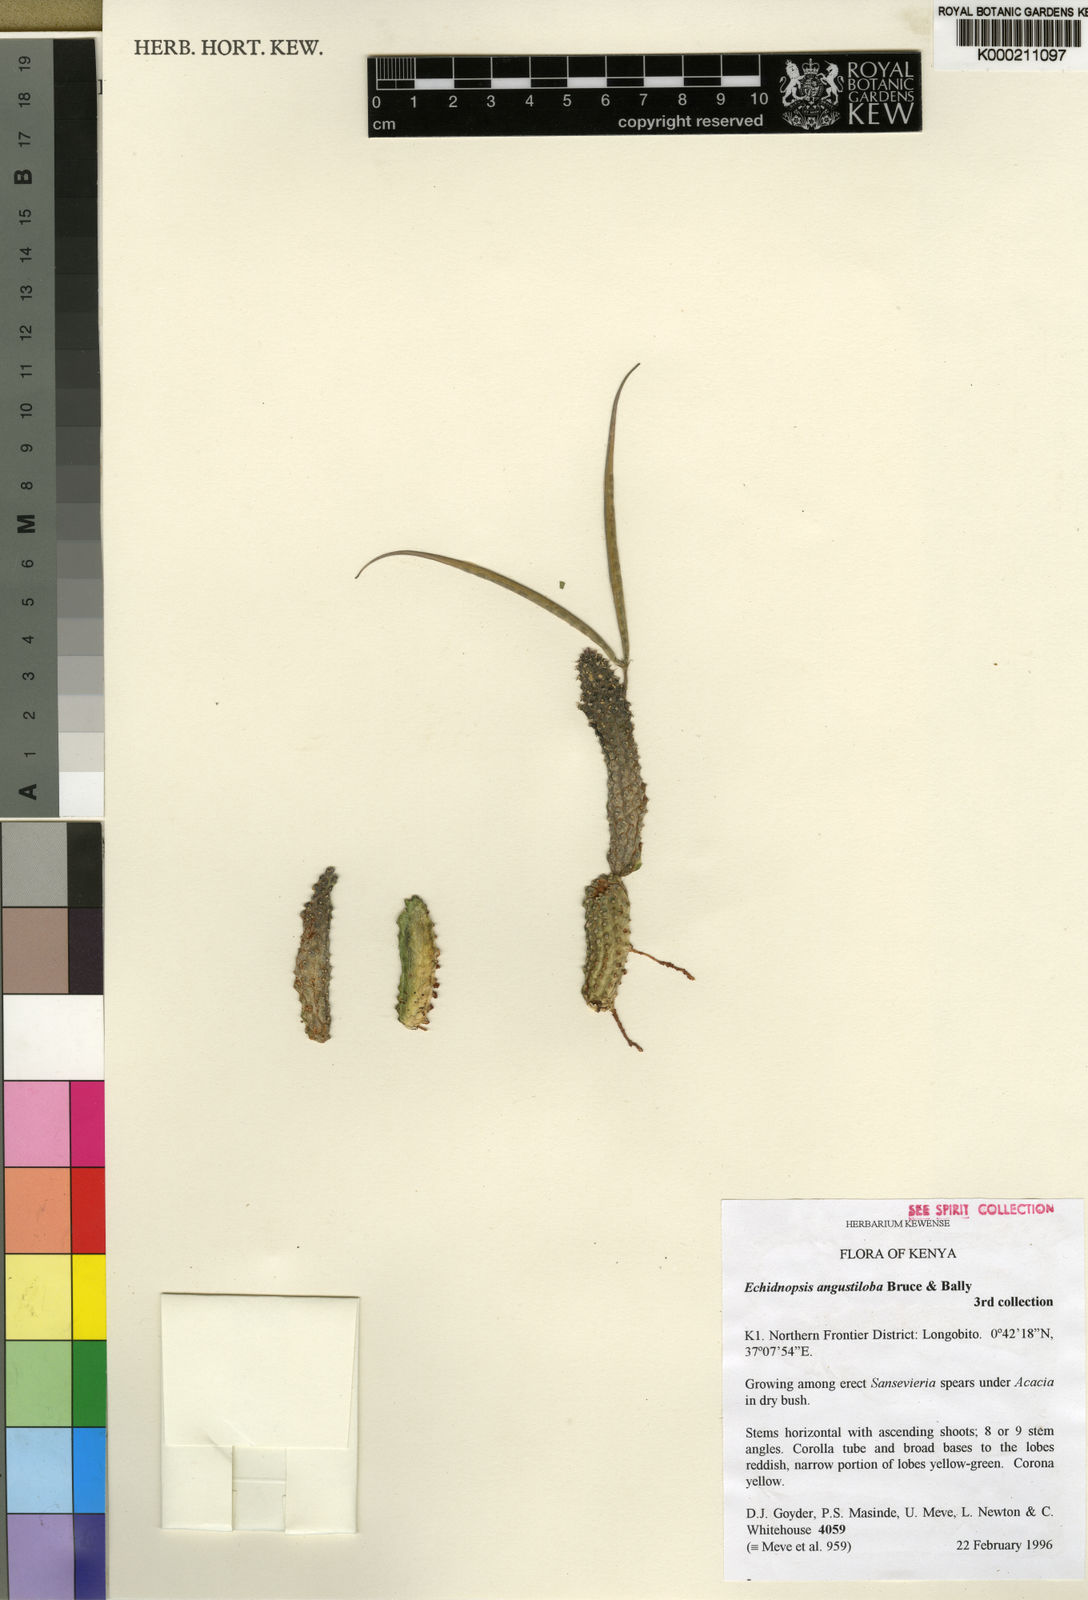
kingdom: Plantae
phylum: Tracheophyta
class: Magnoliopsida
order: Gentianales
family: Apocynaceae
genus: Ceropegia
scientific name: Ceropegia angustilobulata
